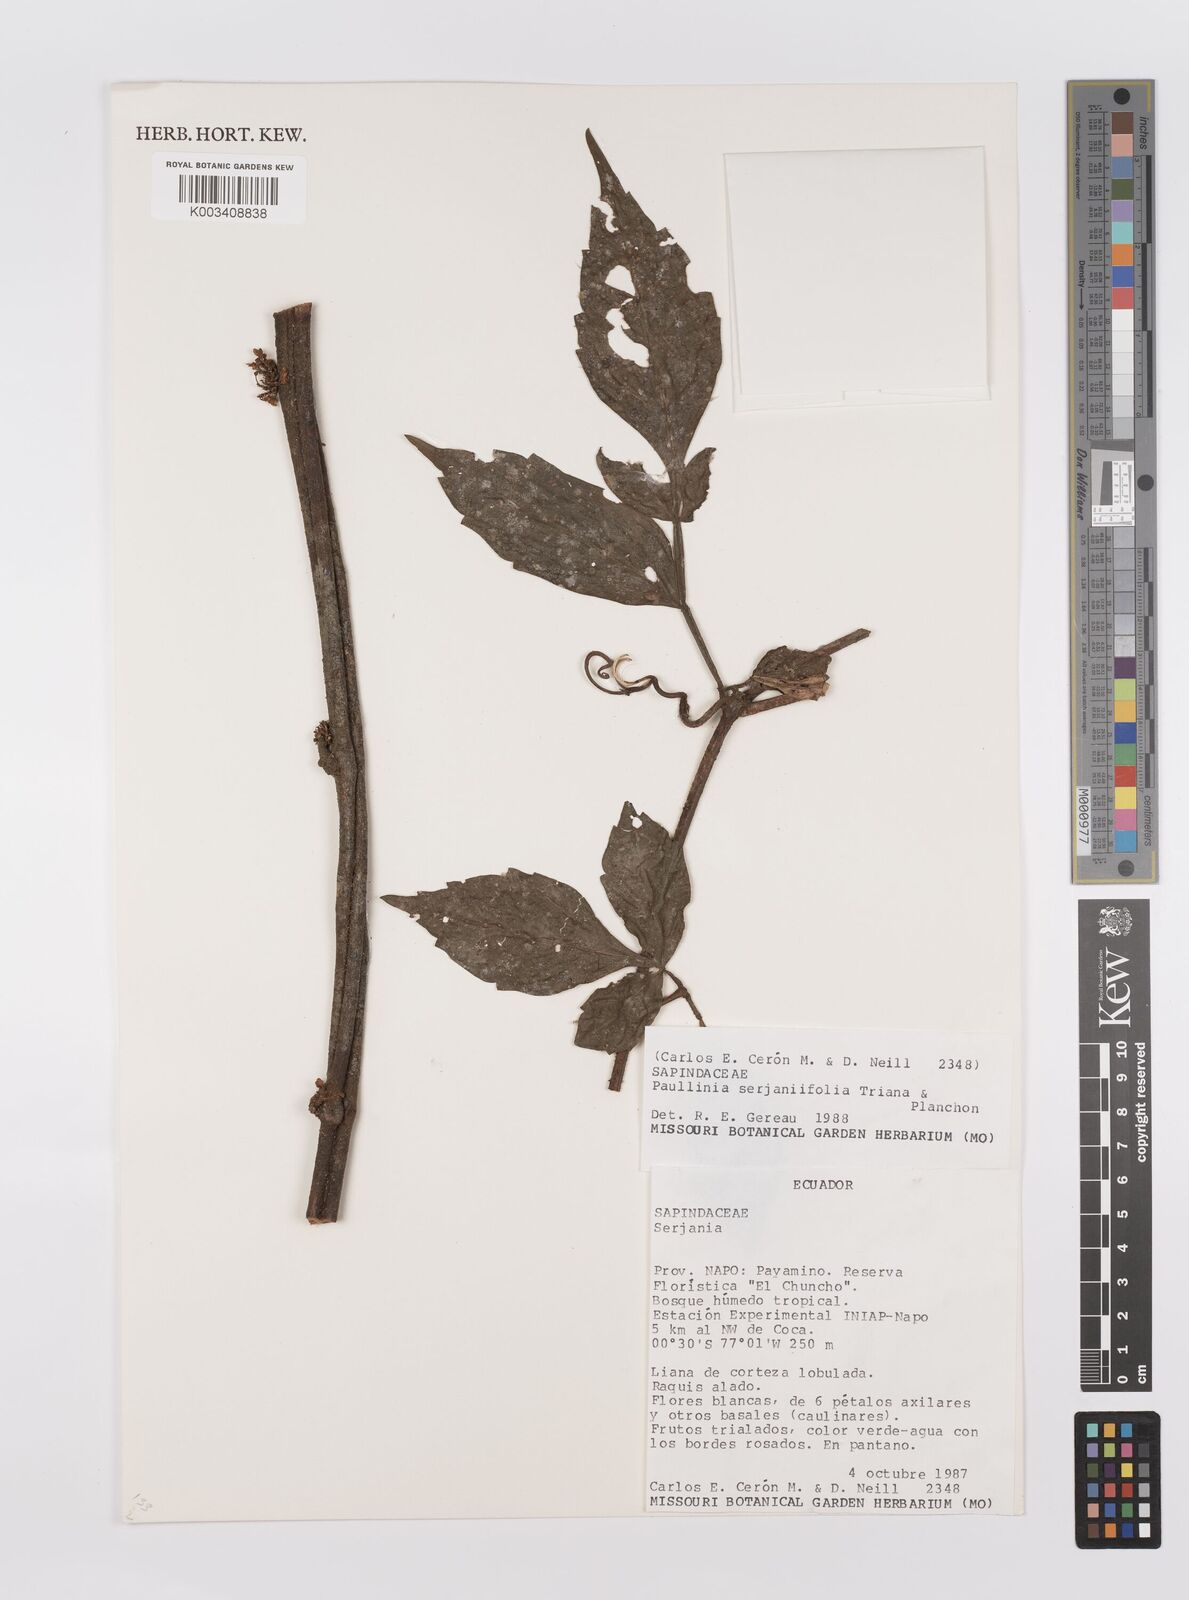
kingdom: Plantae
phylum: Tracheophyta
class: Magnoliopsida
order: Sapindales
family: Sapindaceae
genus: Paullinia
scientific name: Paullinia serjaniifolia
